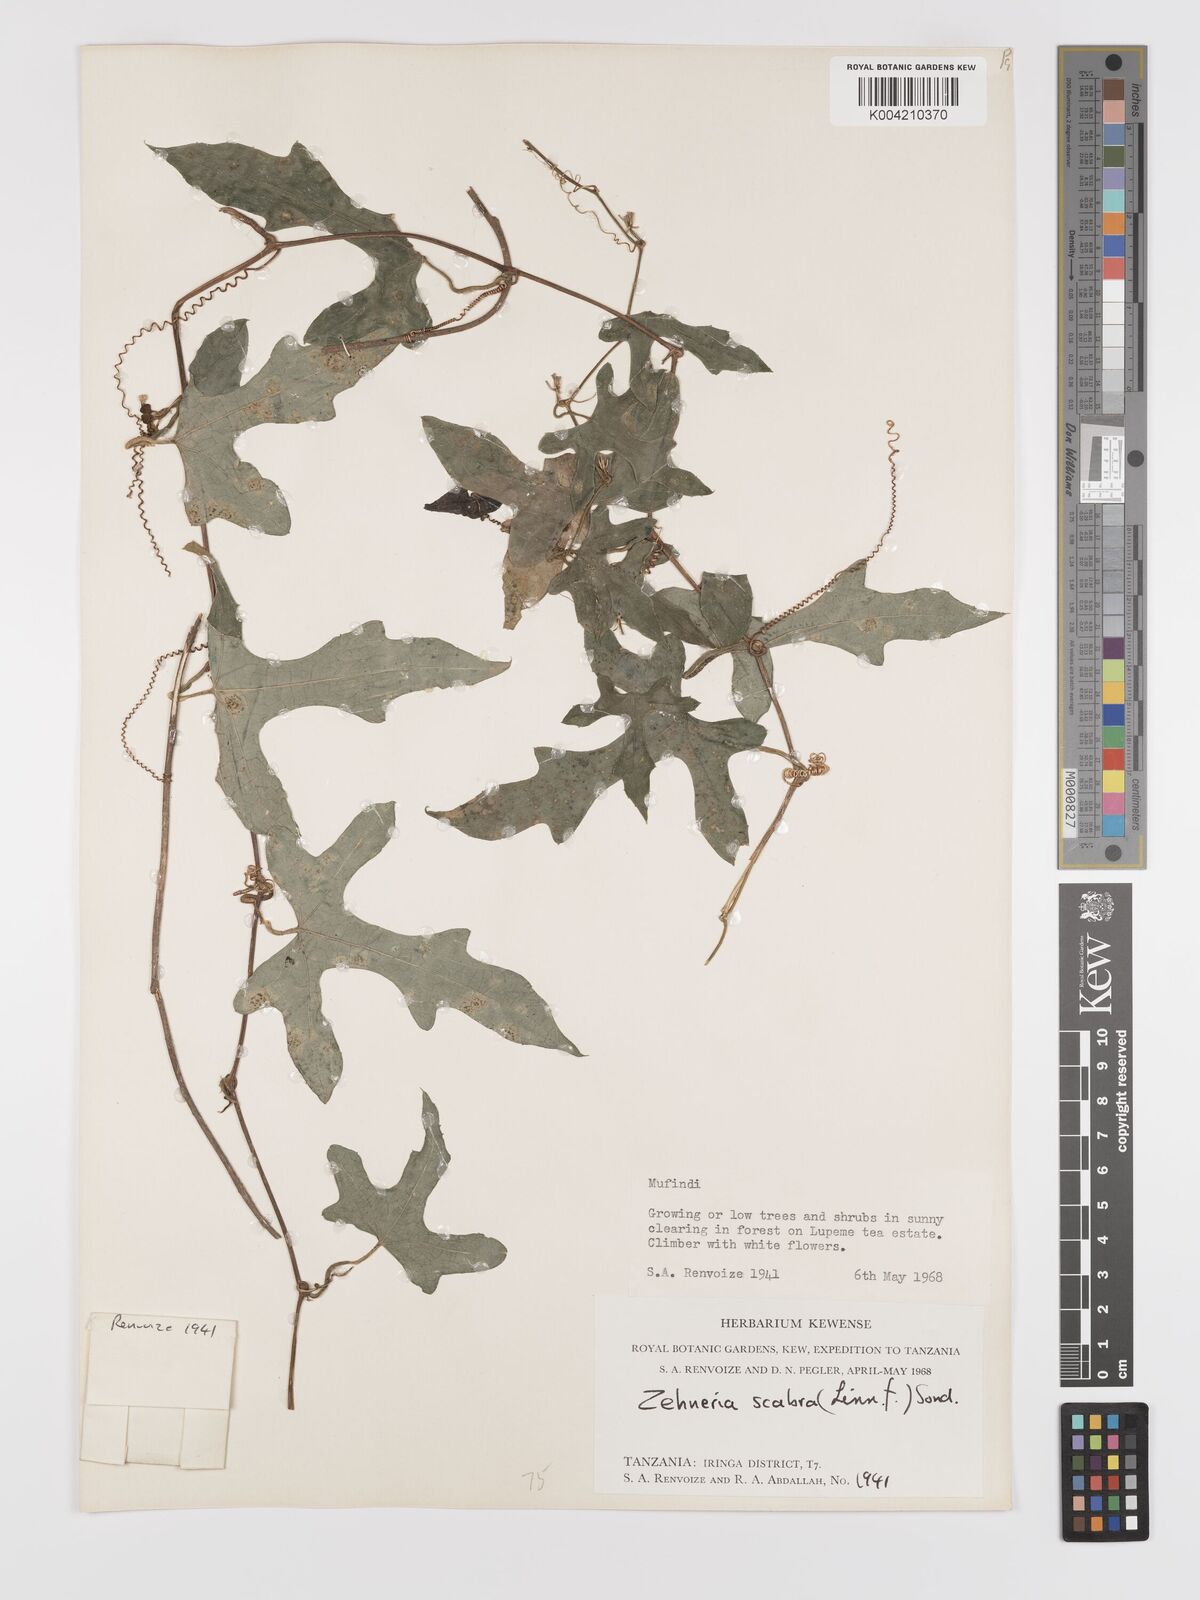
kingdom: Plantae
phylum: Tracheophyta
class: Magnoliopsida
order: Cucurbitales
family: Cucurbitaceae
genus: Zehneria
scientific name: Zehneria emirnensis
